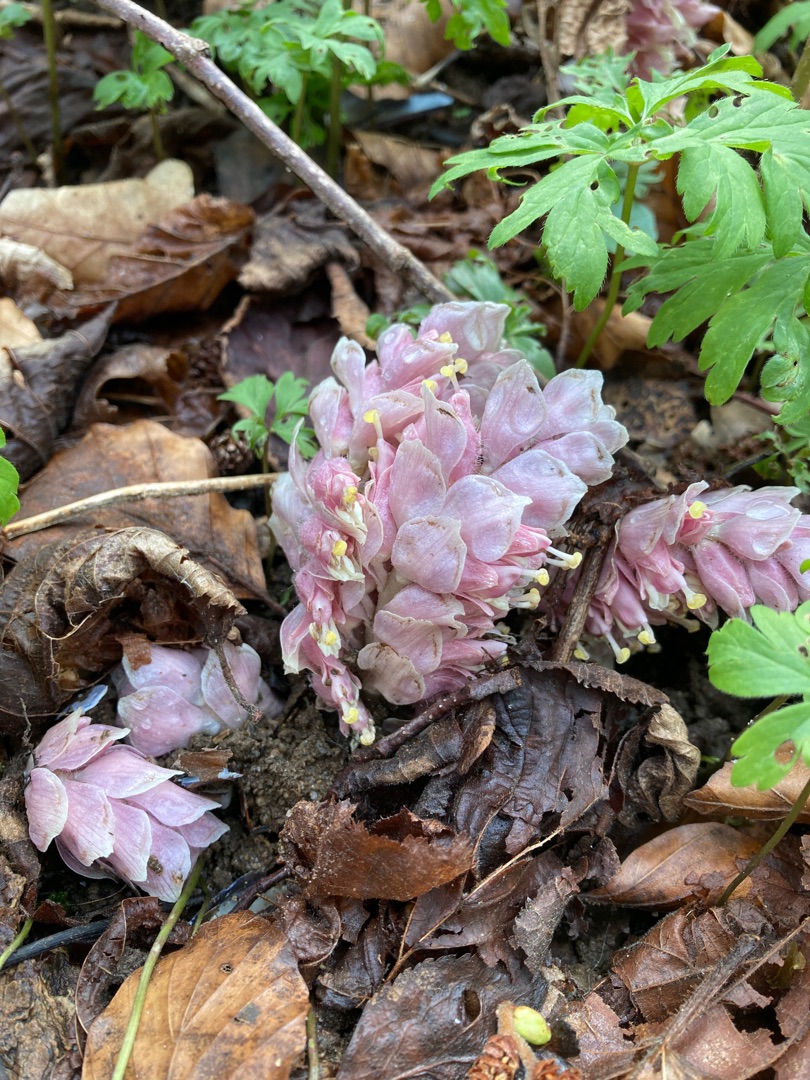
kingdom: Plantae
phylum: Tracheophyta
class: Magnoliopsida
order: Lamiales
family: Orobanchaceae
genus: Lathraea
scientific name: Lathraea squamaria
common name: Skælrod
